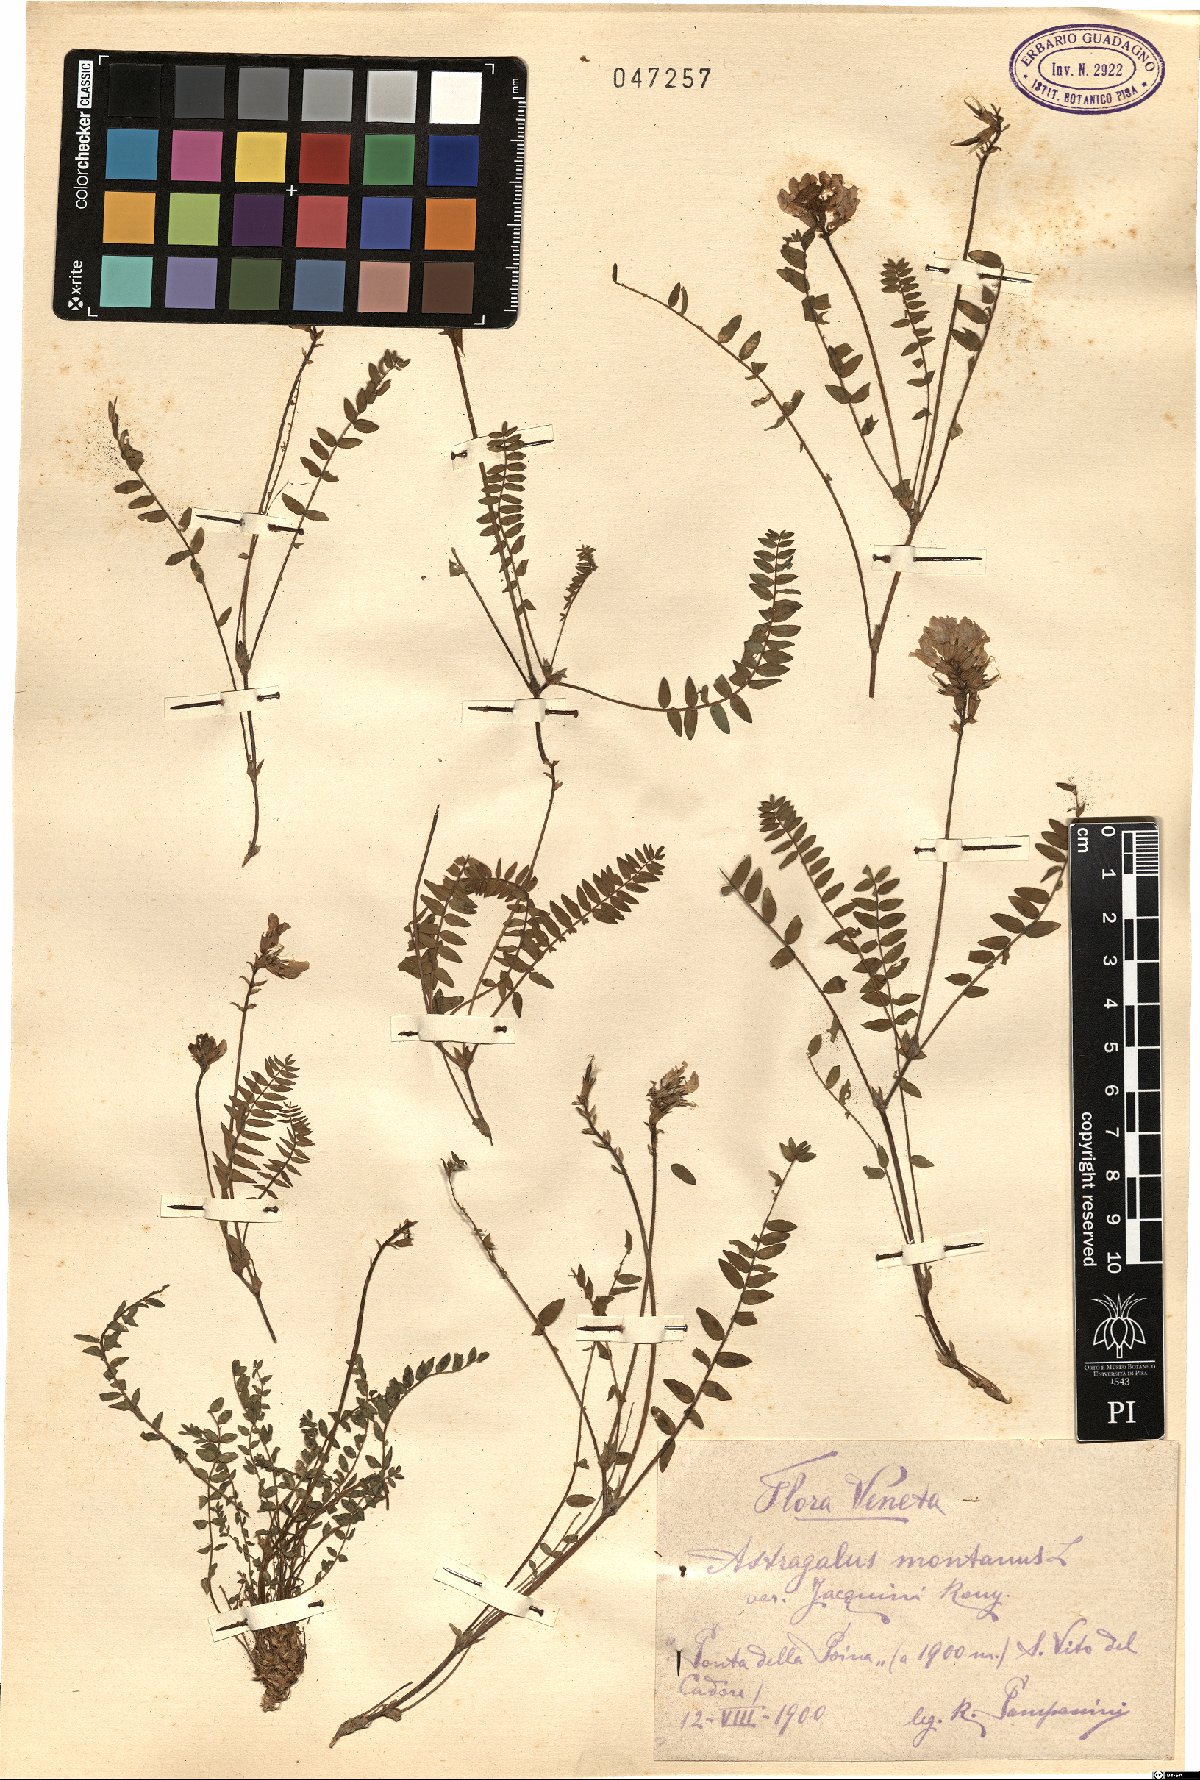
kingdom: Plantae
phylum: Tracheophyta
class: Magnoliopsida
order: Fabales
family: Fabaceae
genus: Oxytropis
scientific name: Oxytropis montana
